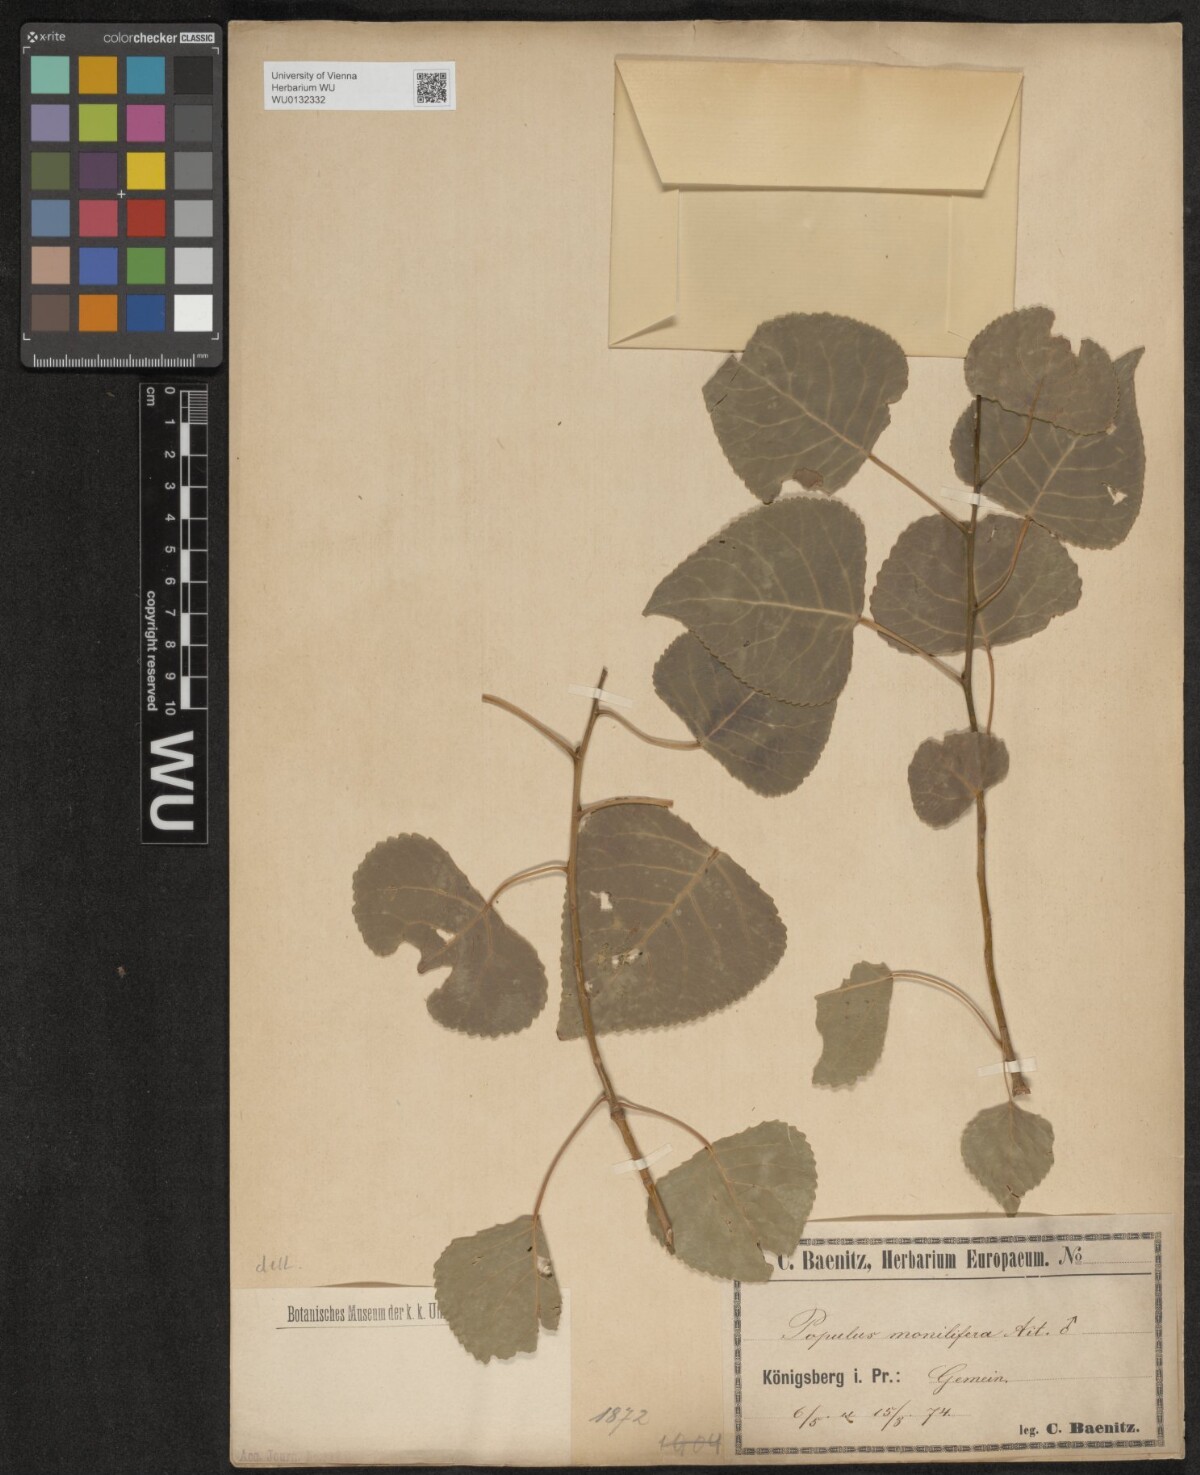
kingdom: Plantae
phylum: Tracheophyta
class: Magnoliopsida
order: Malpighiales
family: Salicaceae
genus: Populus
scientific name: Populus deltoides
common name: Eastern cottonwood
